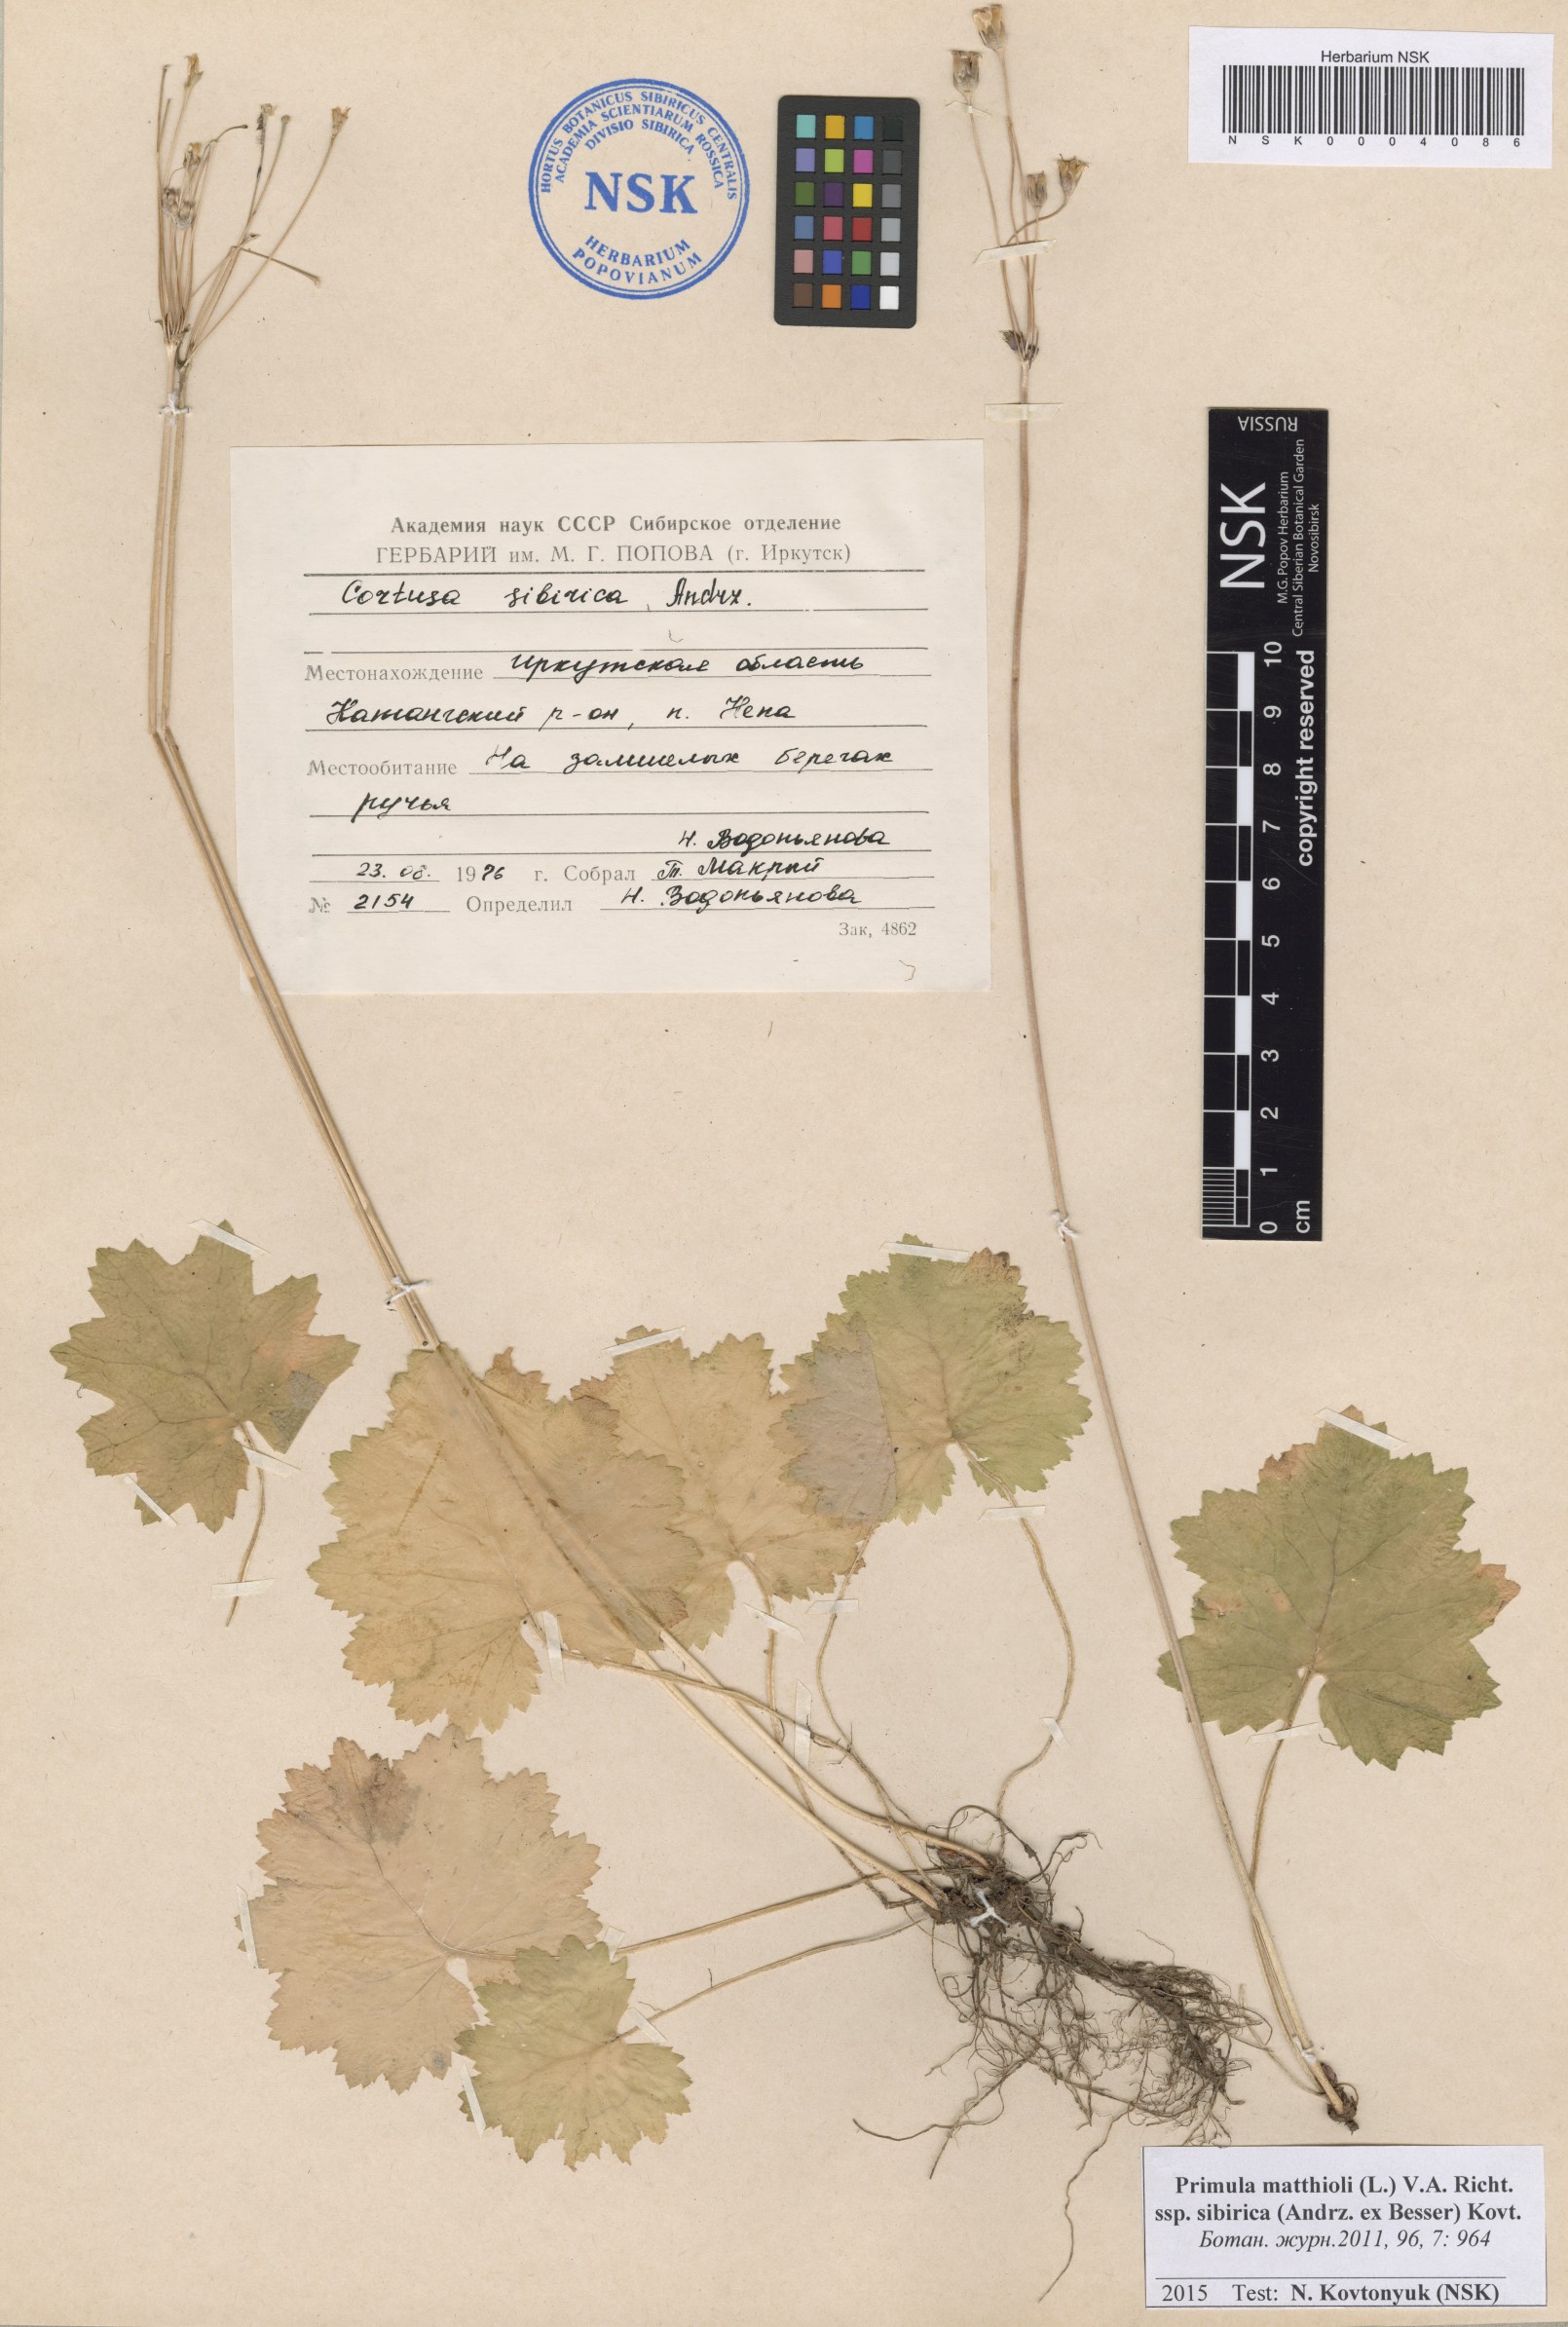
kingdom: Plantae
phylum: Tracheophyta
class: Magnoliopsida
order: Ericales
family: Primulaceae
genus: Primula
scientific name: Primula matthioli
